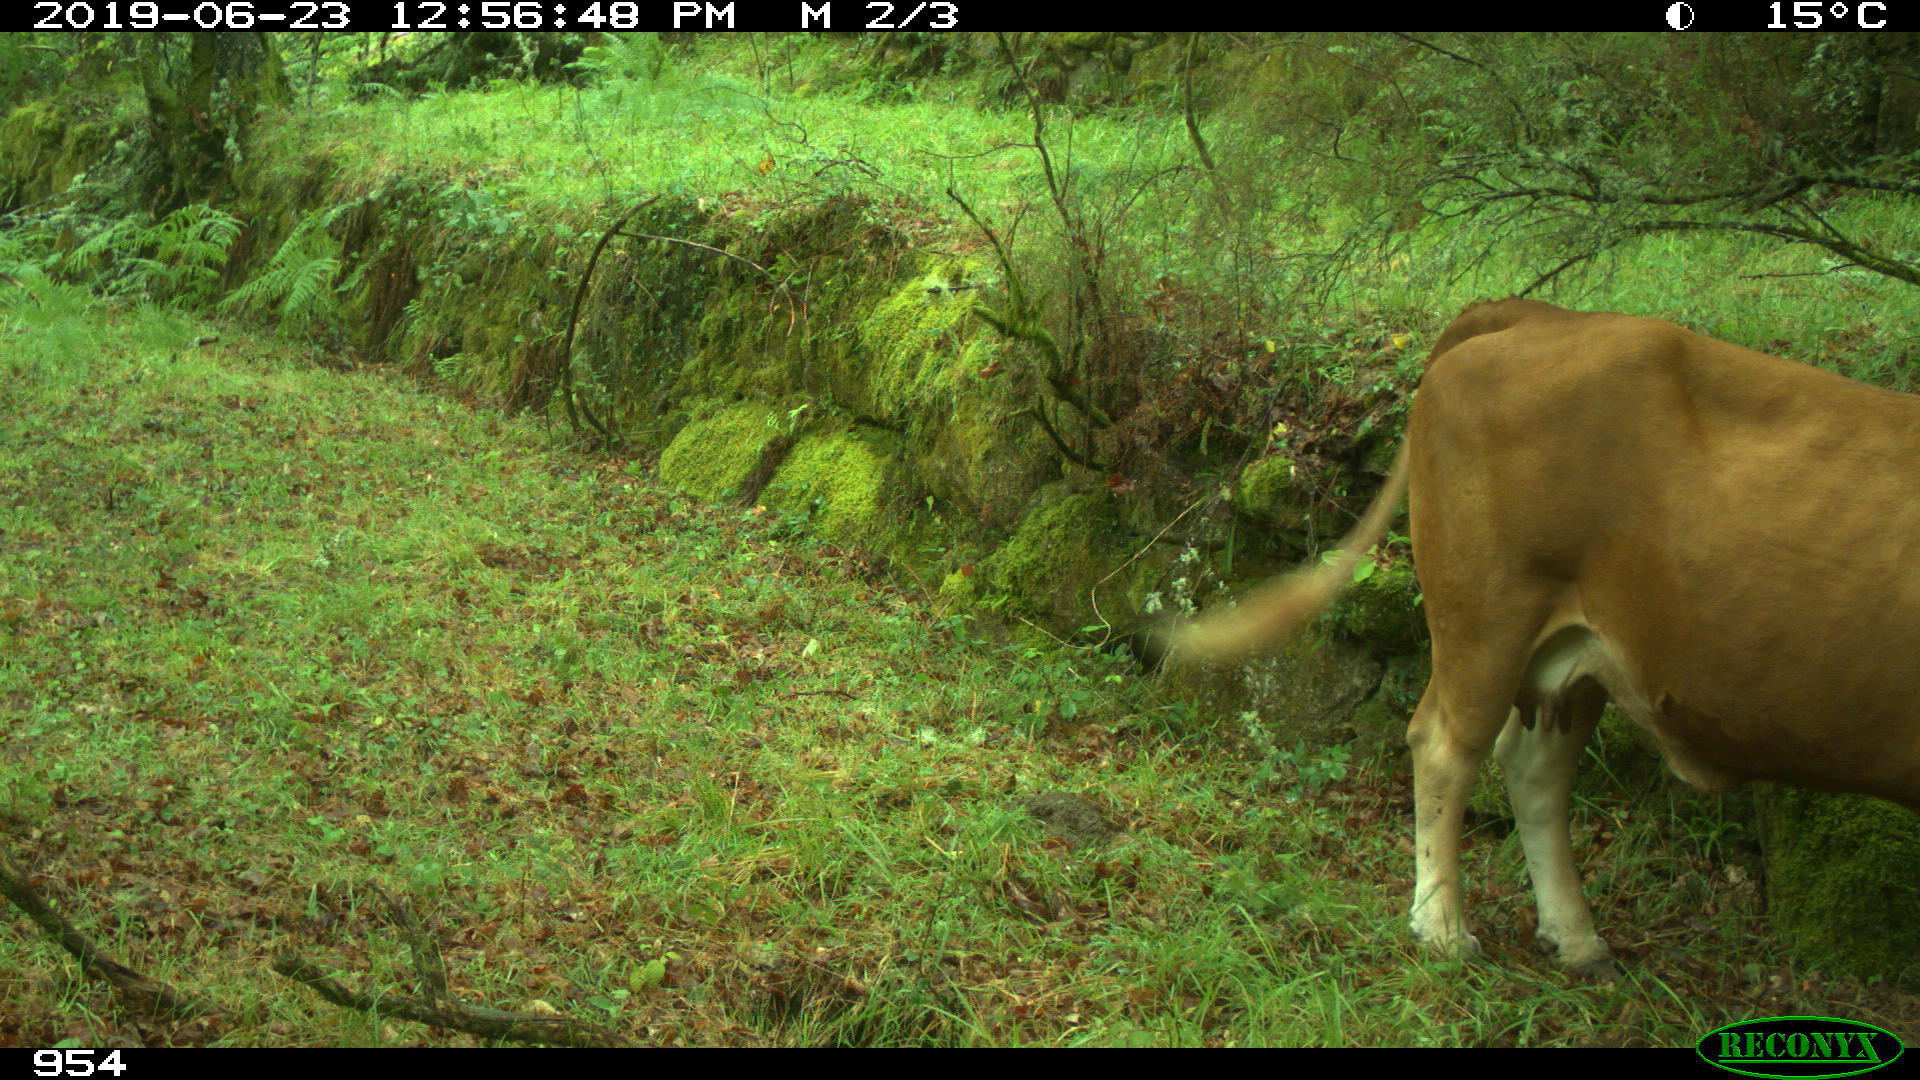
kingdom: Animalia
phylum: Chordata
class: Mammalia
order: Artiodactyla
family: Bovidae
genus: Bos
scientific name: Bos taurus
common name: Domesticated cattle
